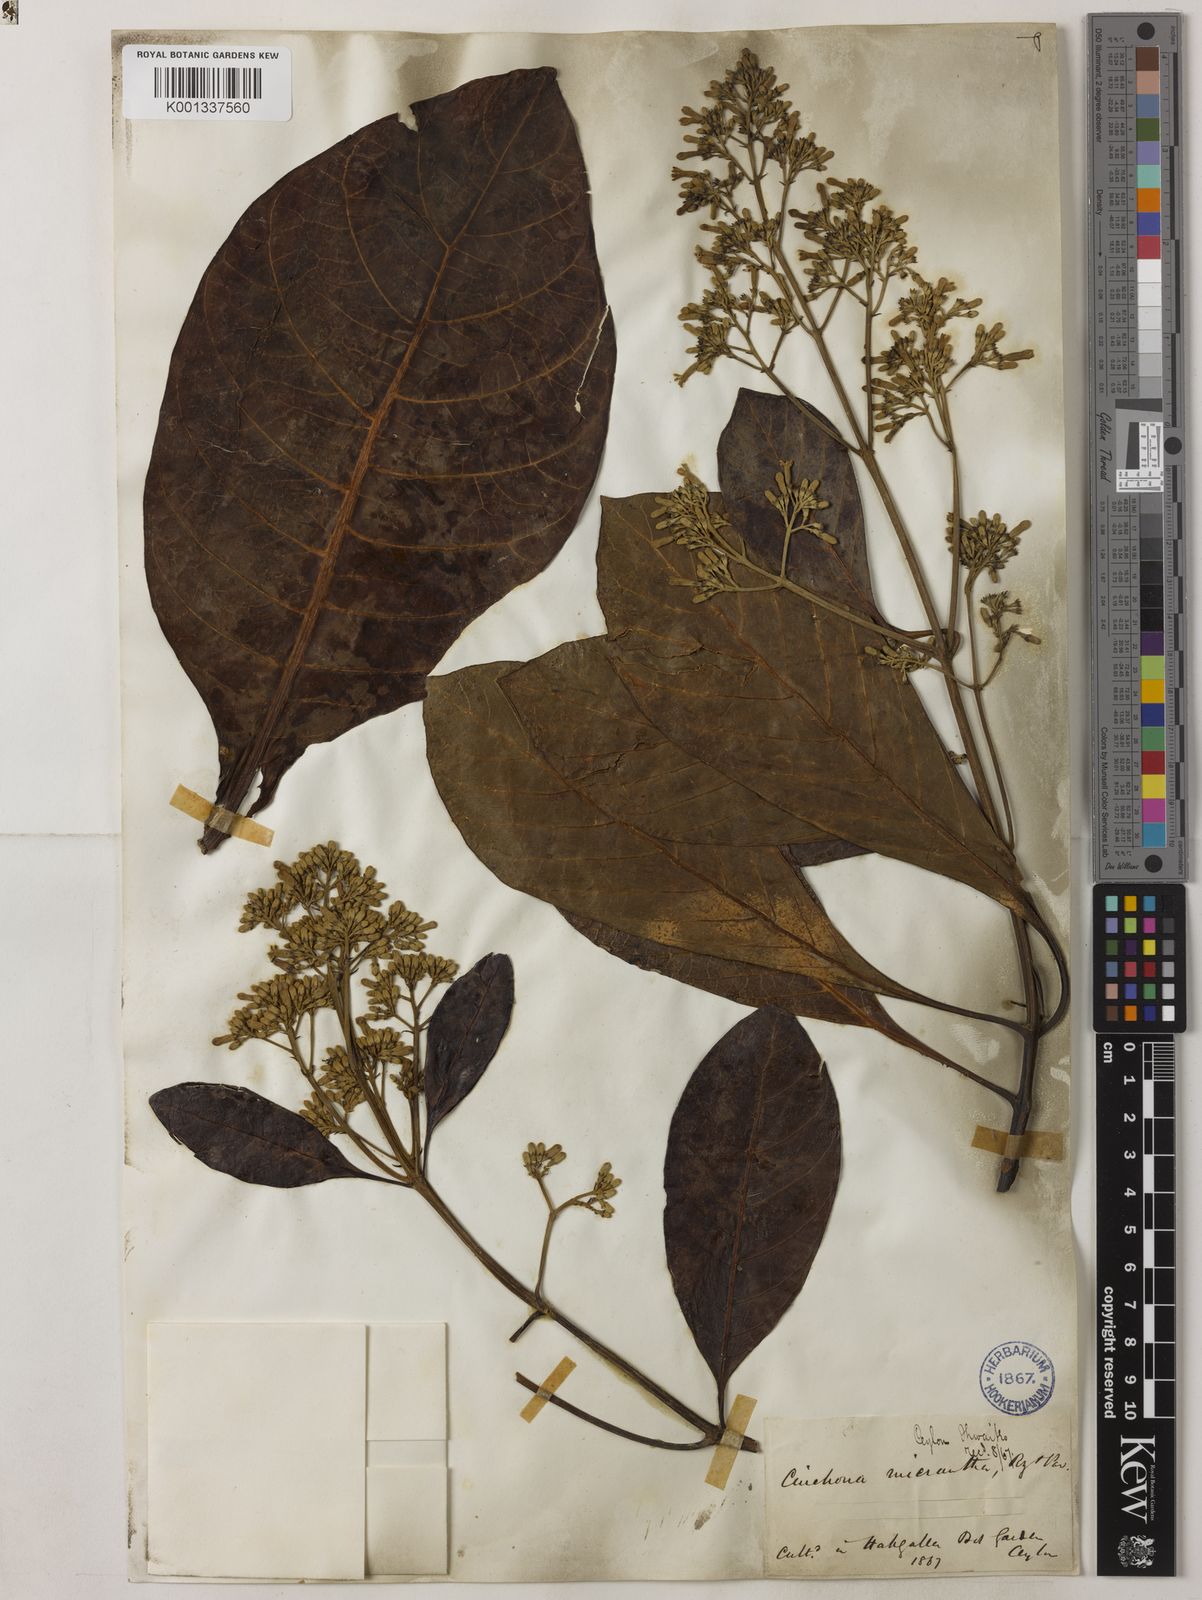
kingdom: Plantae
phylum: Tracheophyta
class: Magnoliopsida
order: Gentianales
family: Rubiaceae
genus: Cinchona
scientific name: Cinchona micrantha
